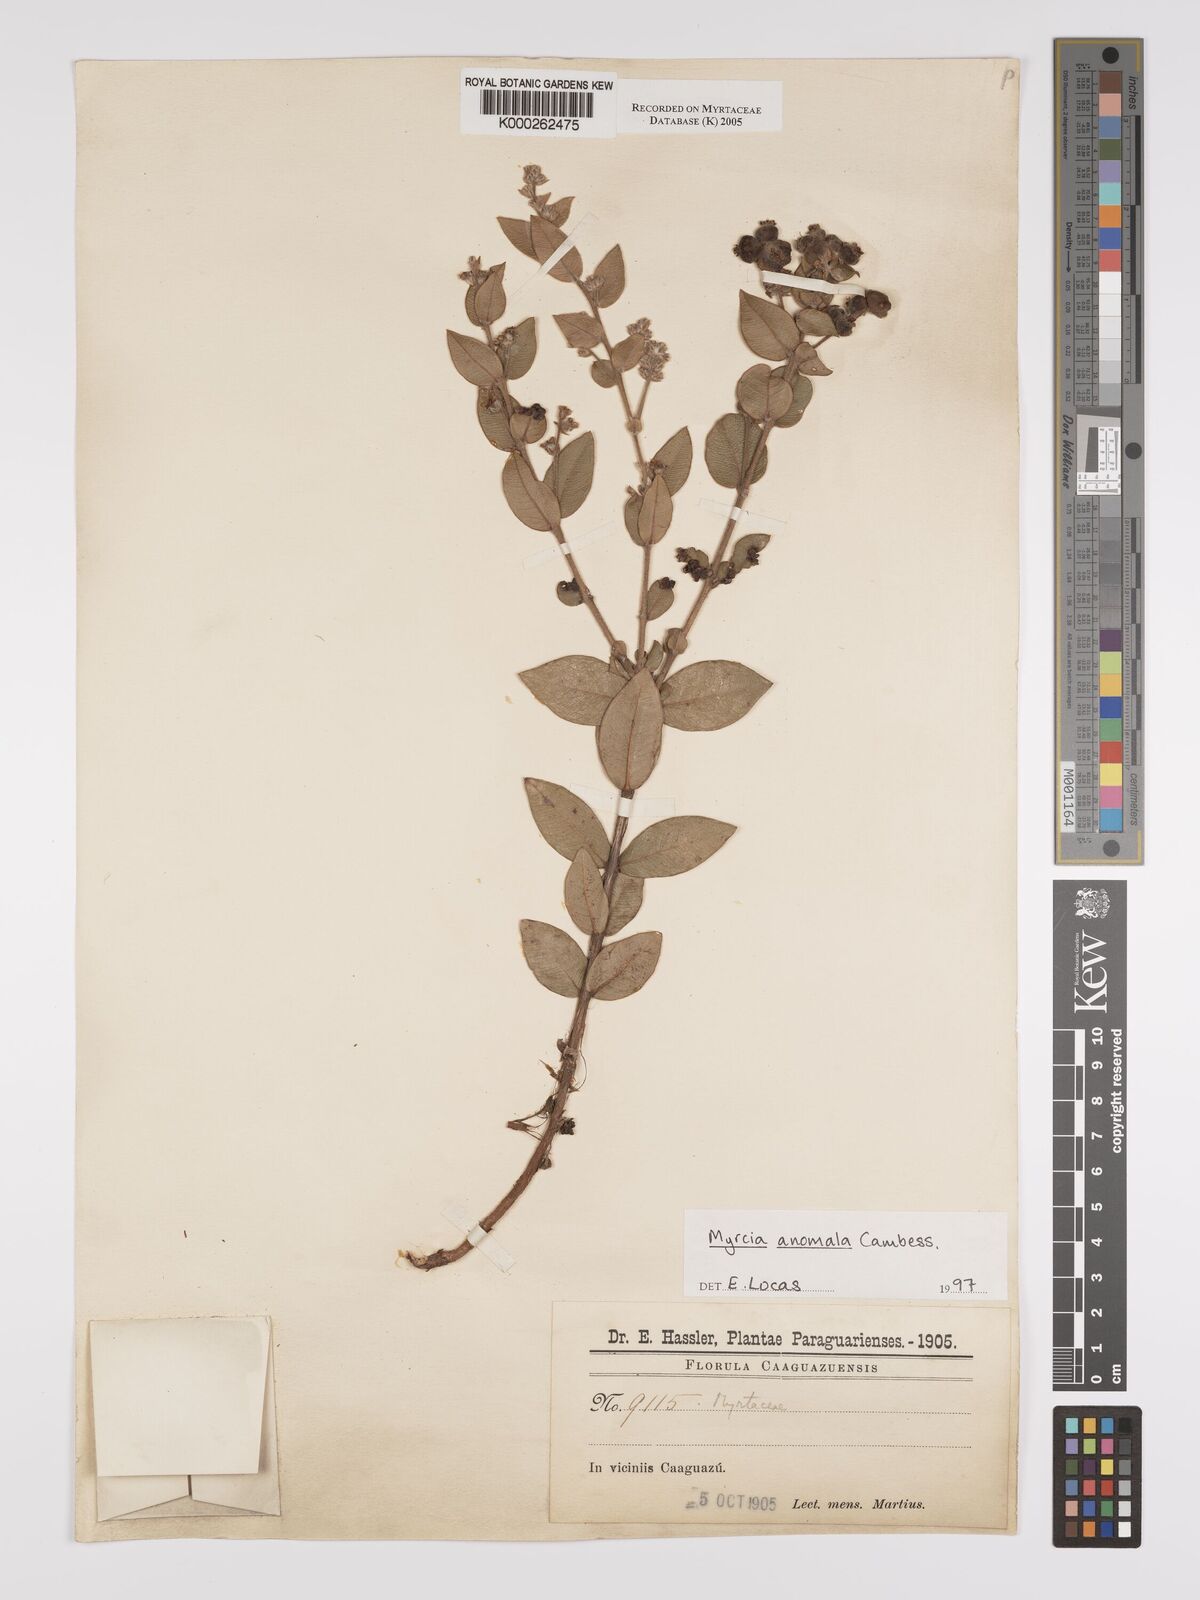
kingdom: Plantae
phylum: Tracheophyta
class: Magnoliopsida
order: Myrtales
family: Myrtaceae
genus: Myrcia
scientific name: Myrcia anomala
